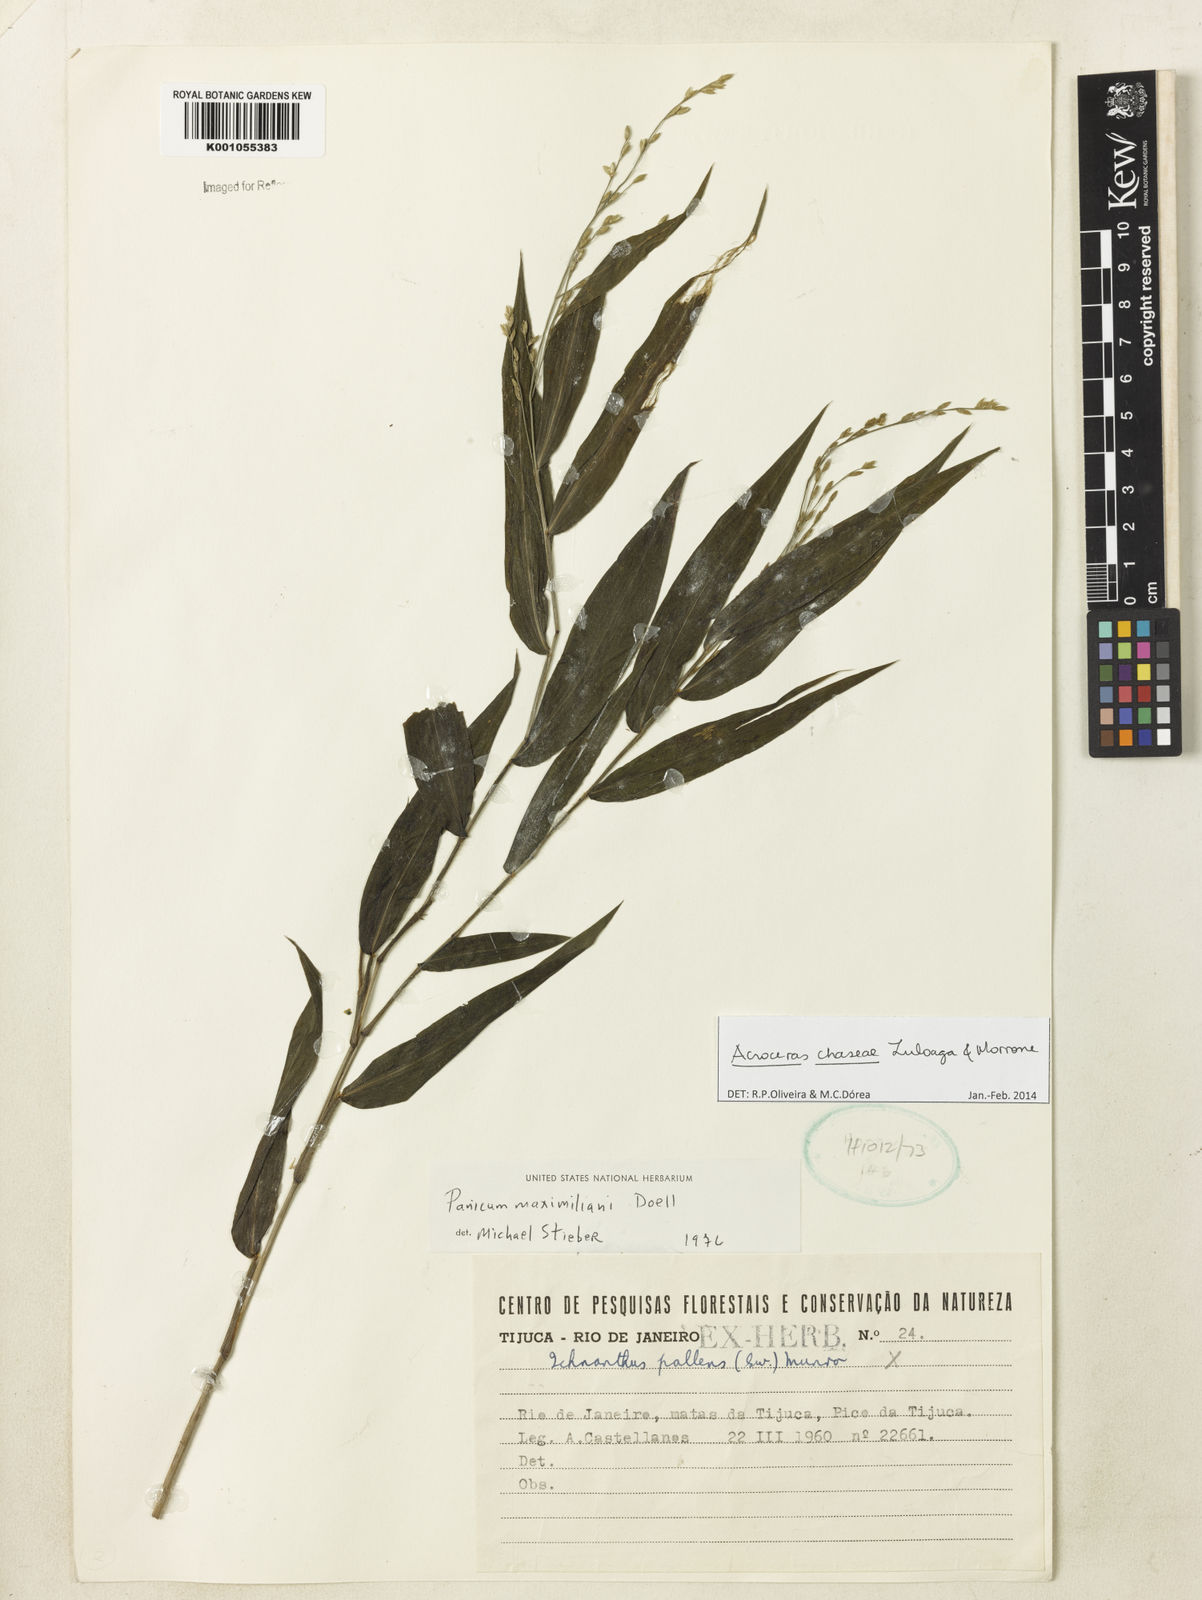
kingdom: Plantae
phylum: Tracheophyta
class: Liliopsida
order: Poales
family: Poaceae
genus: Acroceras
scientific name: Acroceras chaseae
